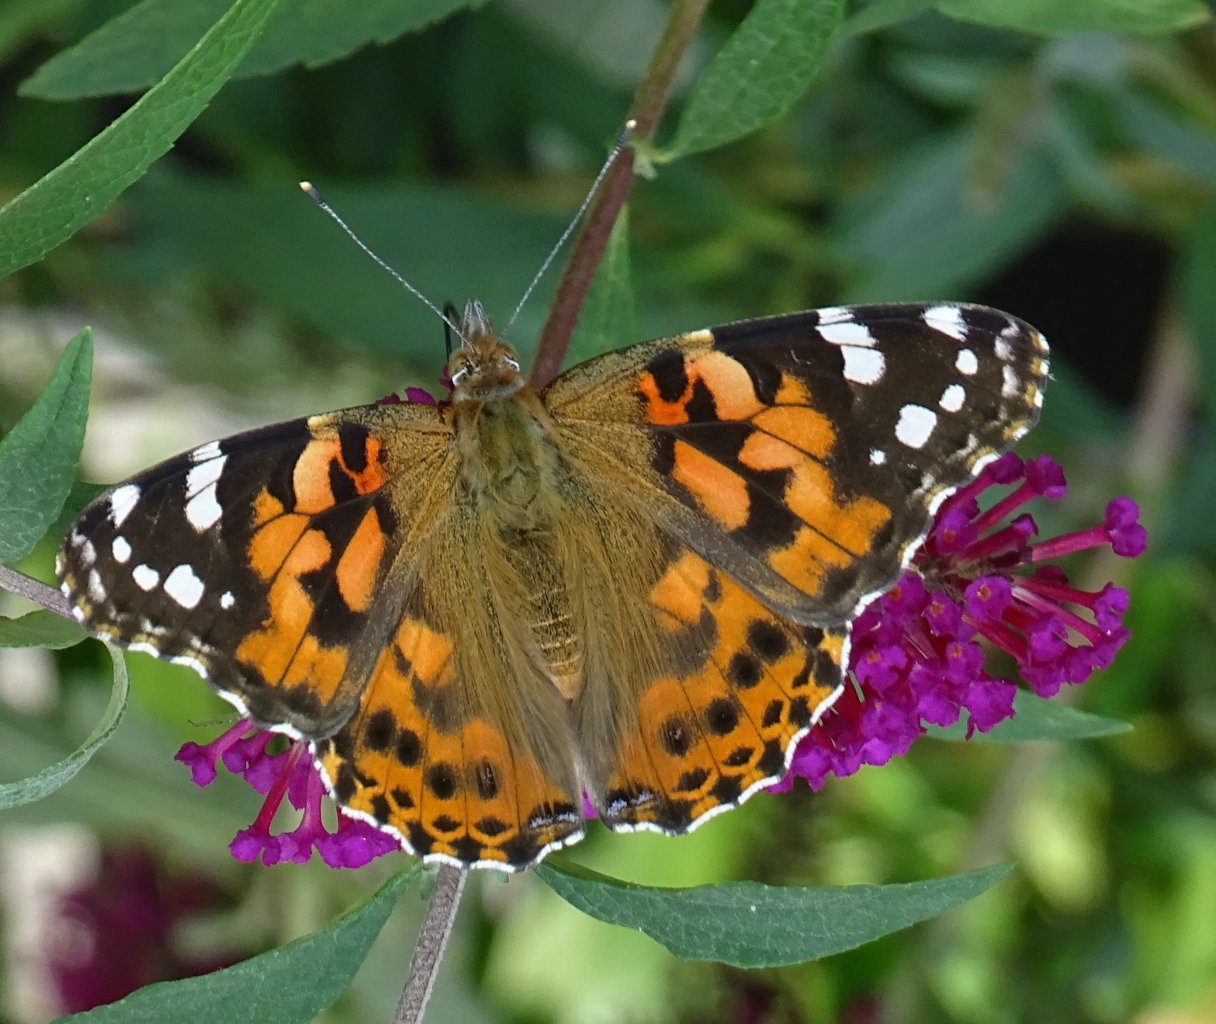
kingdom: Animalia
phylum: Arthropoda
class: Insecta
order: Lepidoptera
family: Nymphalidae
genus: Vanessa
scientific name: Vanessa cardui
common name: Painted Lady
